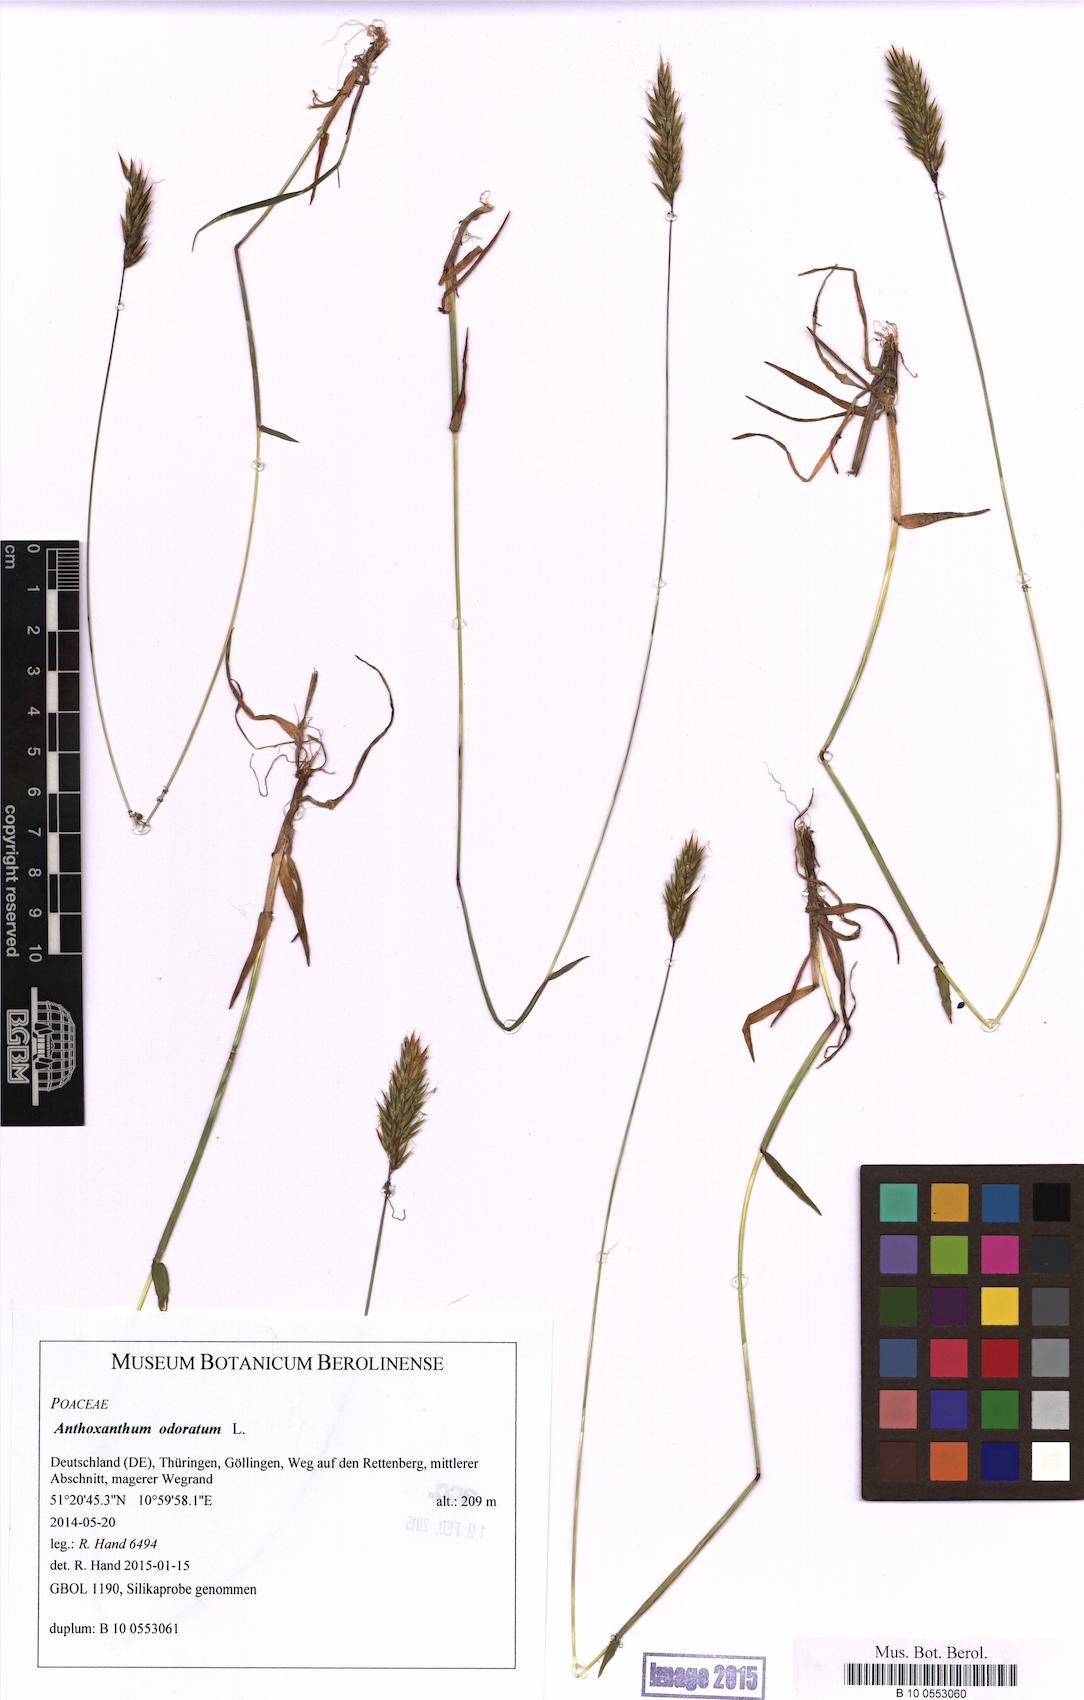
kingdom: Plantae
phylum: Tracheophyta
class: Liliopsida
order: Poales
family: Poaceae
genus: Anthoxanthum
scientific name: Anthoxanthum odoratum
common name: Sweet vernalgrass
